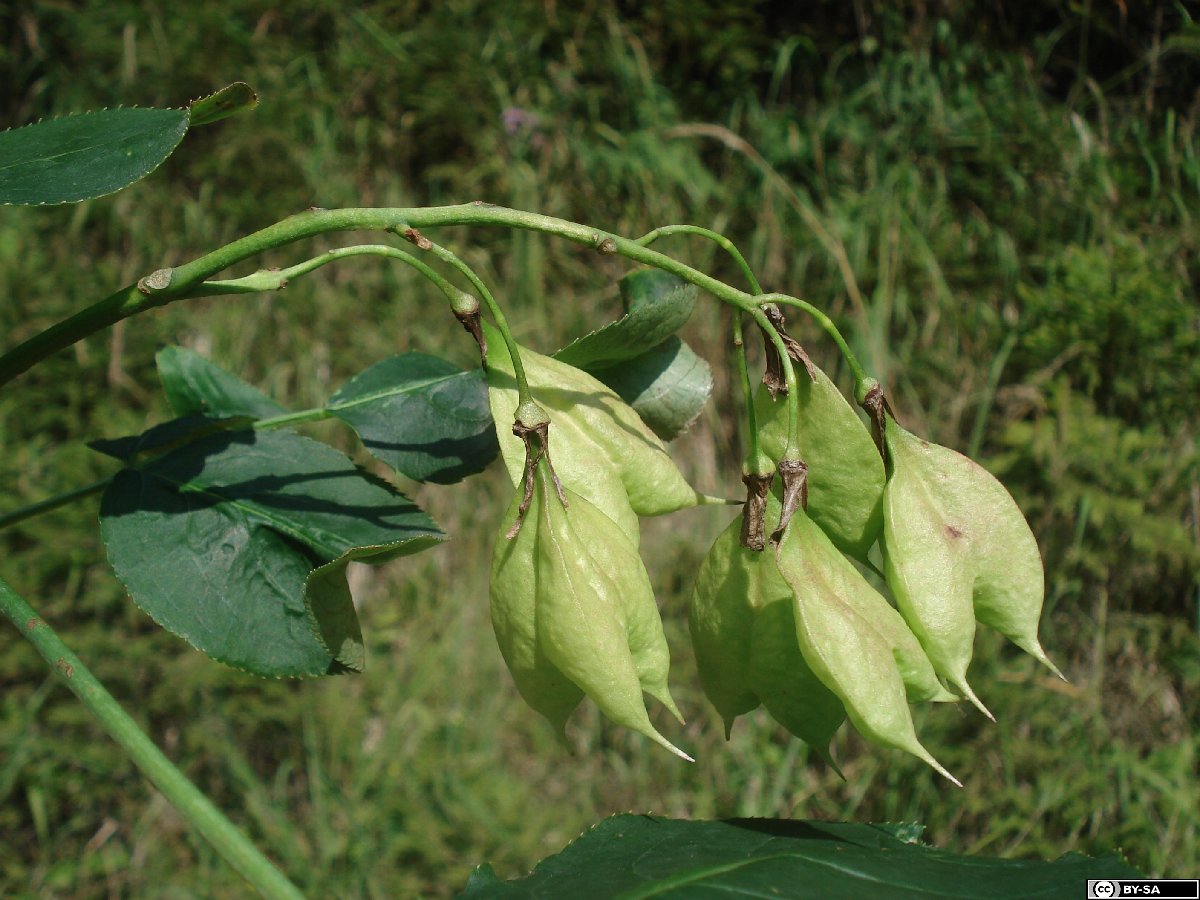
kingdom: Plantae
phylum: Tracheophyta
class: Magnoliopsida
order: Crossosomatales
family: Staphyleaceae
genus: Staphylea
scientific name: Staphylea colchica
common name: Caucasian bladdernut
